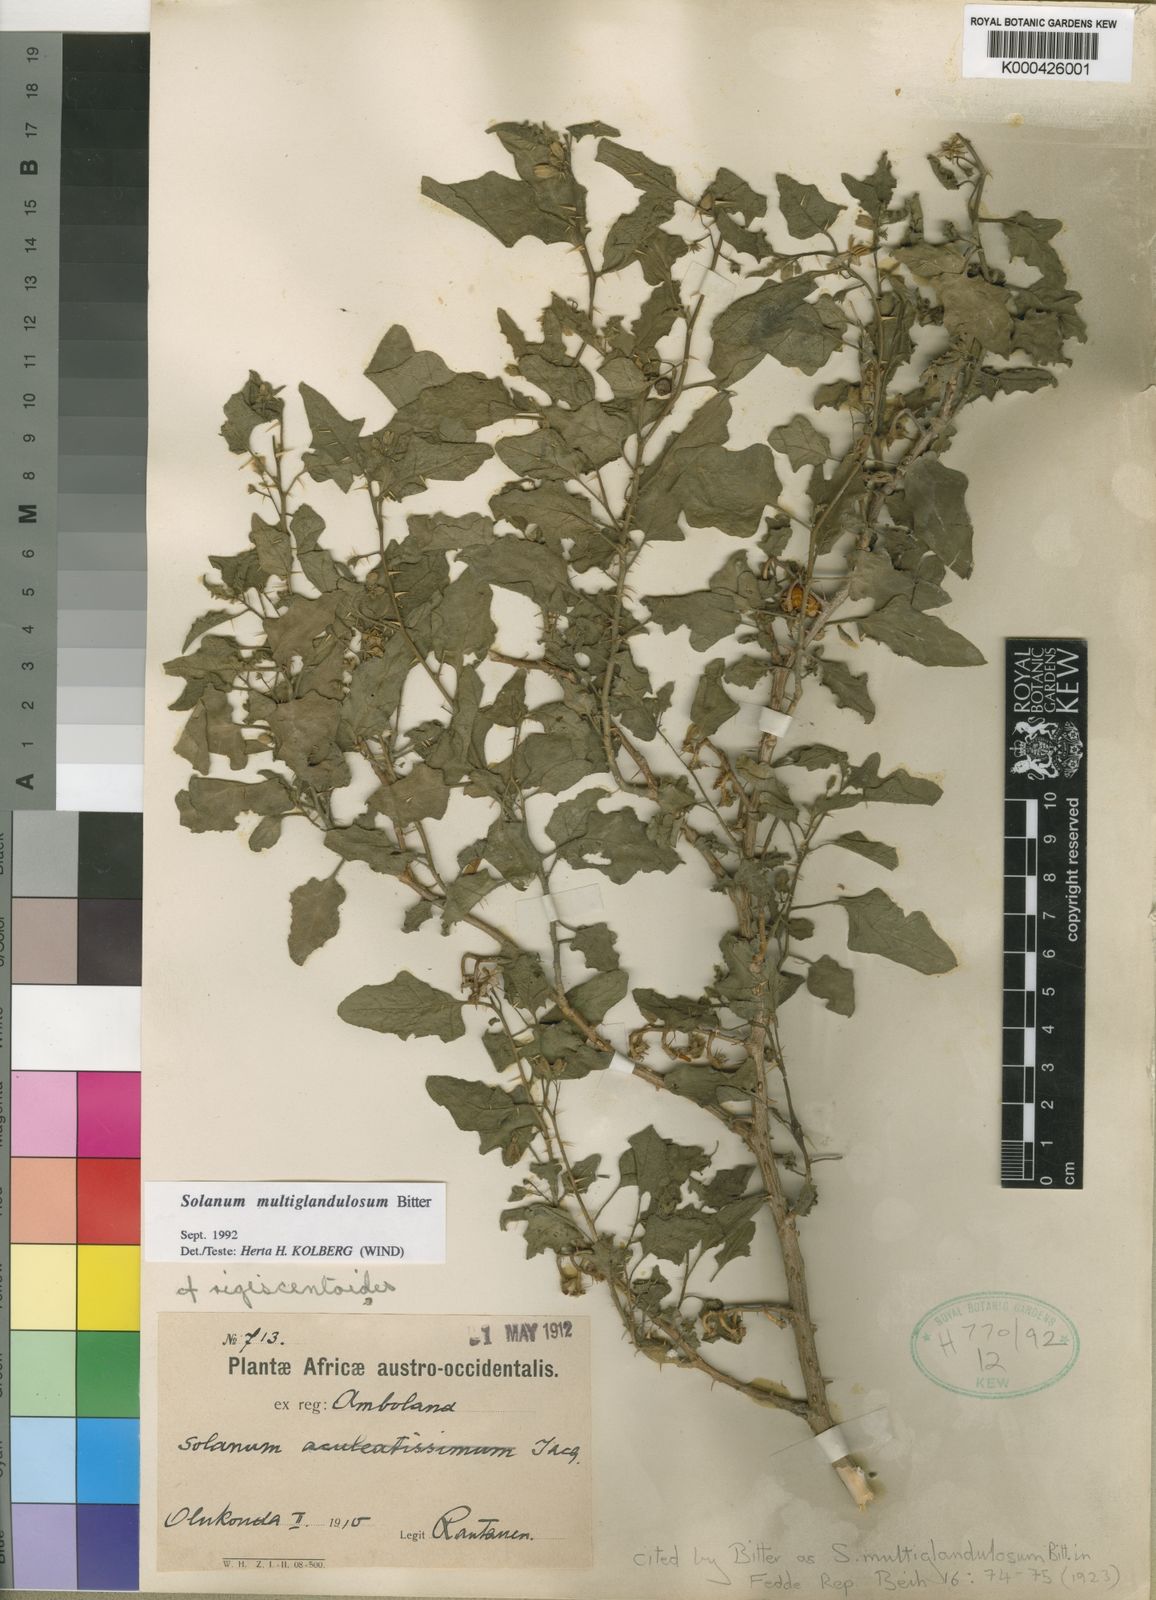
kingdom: Plantae
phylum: Tracheophyta
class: Magnoliopsida
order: Solanales
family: Solanaceae
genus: Solanum
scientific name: Solanum humile
